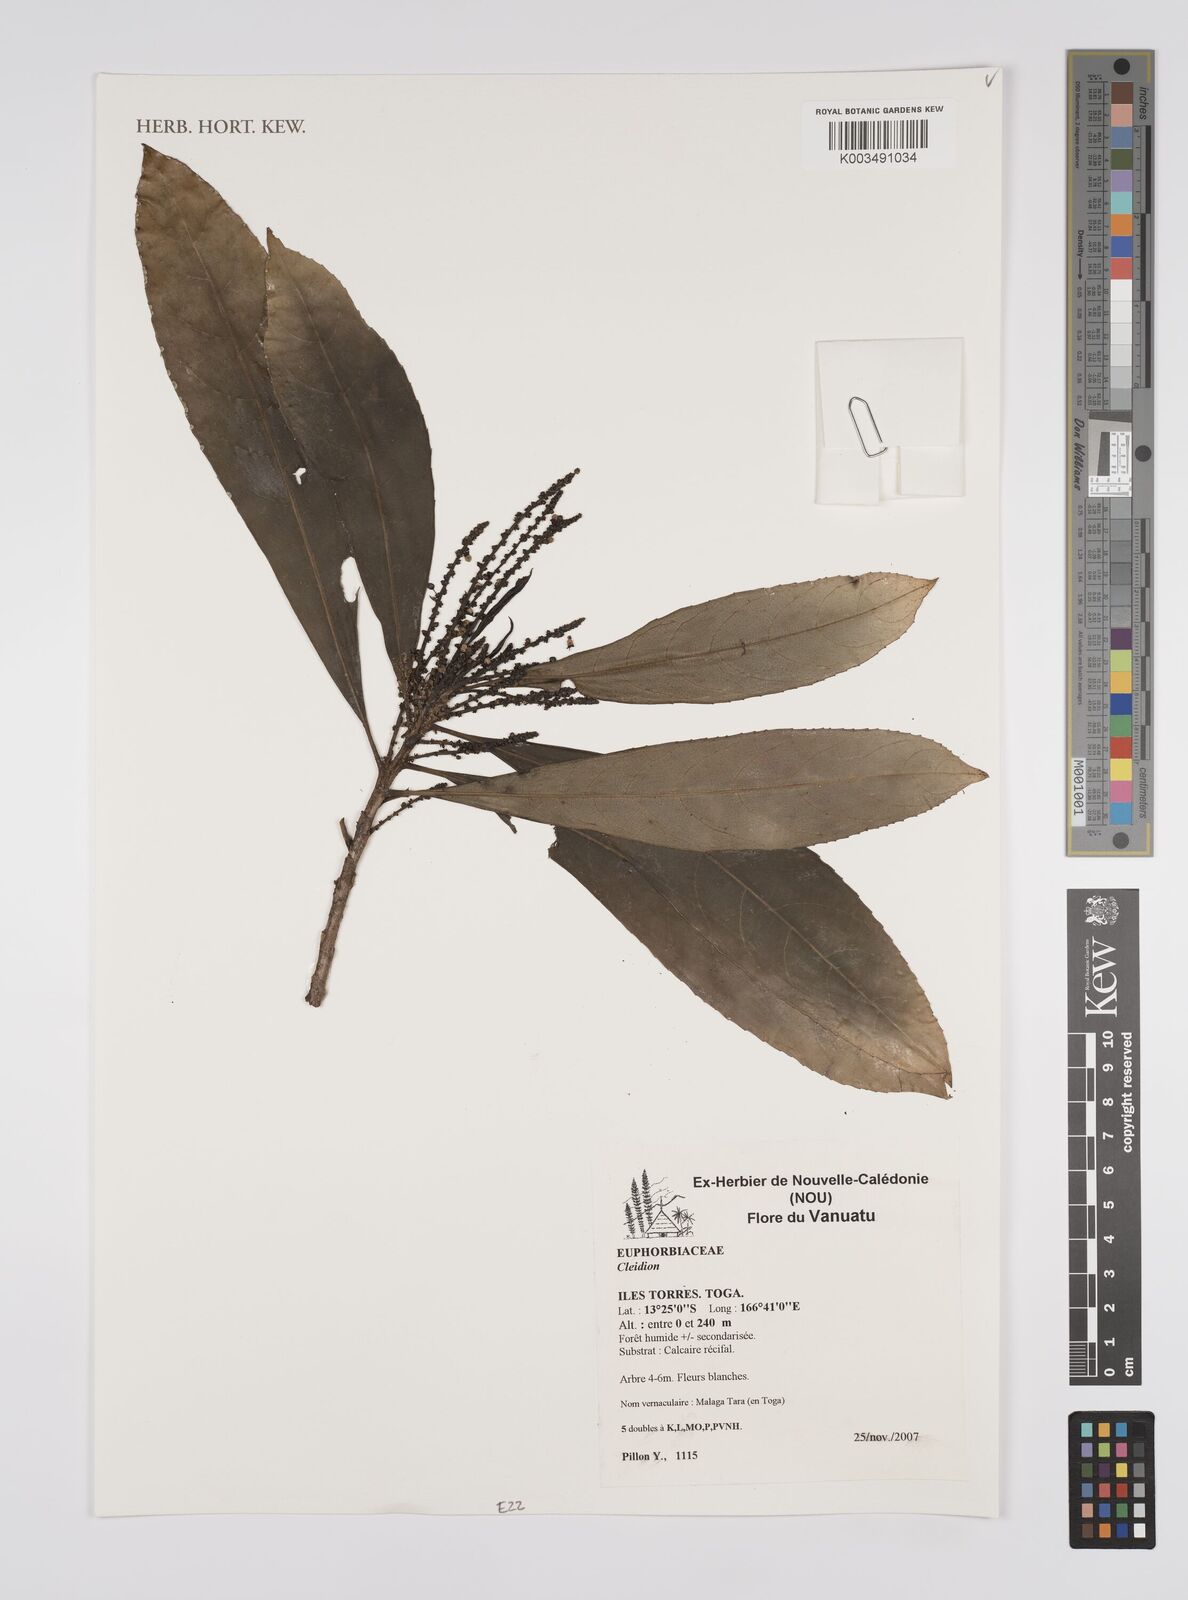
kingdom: Plantae
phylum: Tracheophyta
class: Magnoliopsida
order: Malpighiales
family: Euphorbiaceae
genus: Cleidion
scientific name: Cleidion
